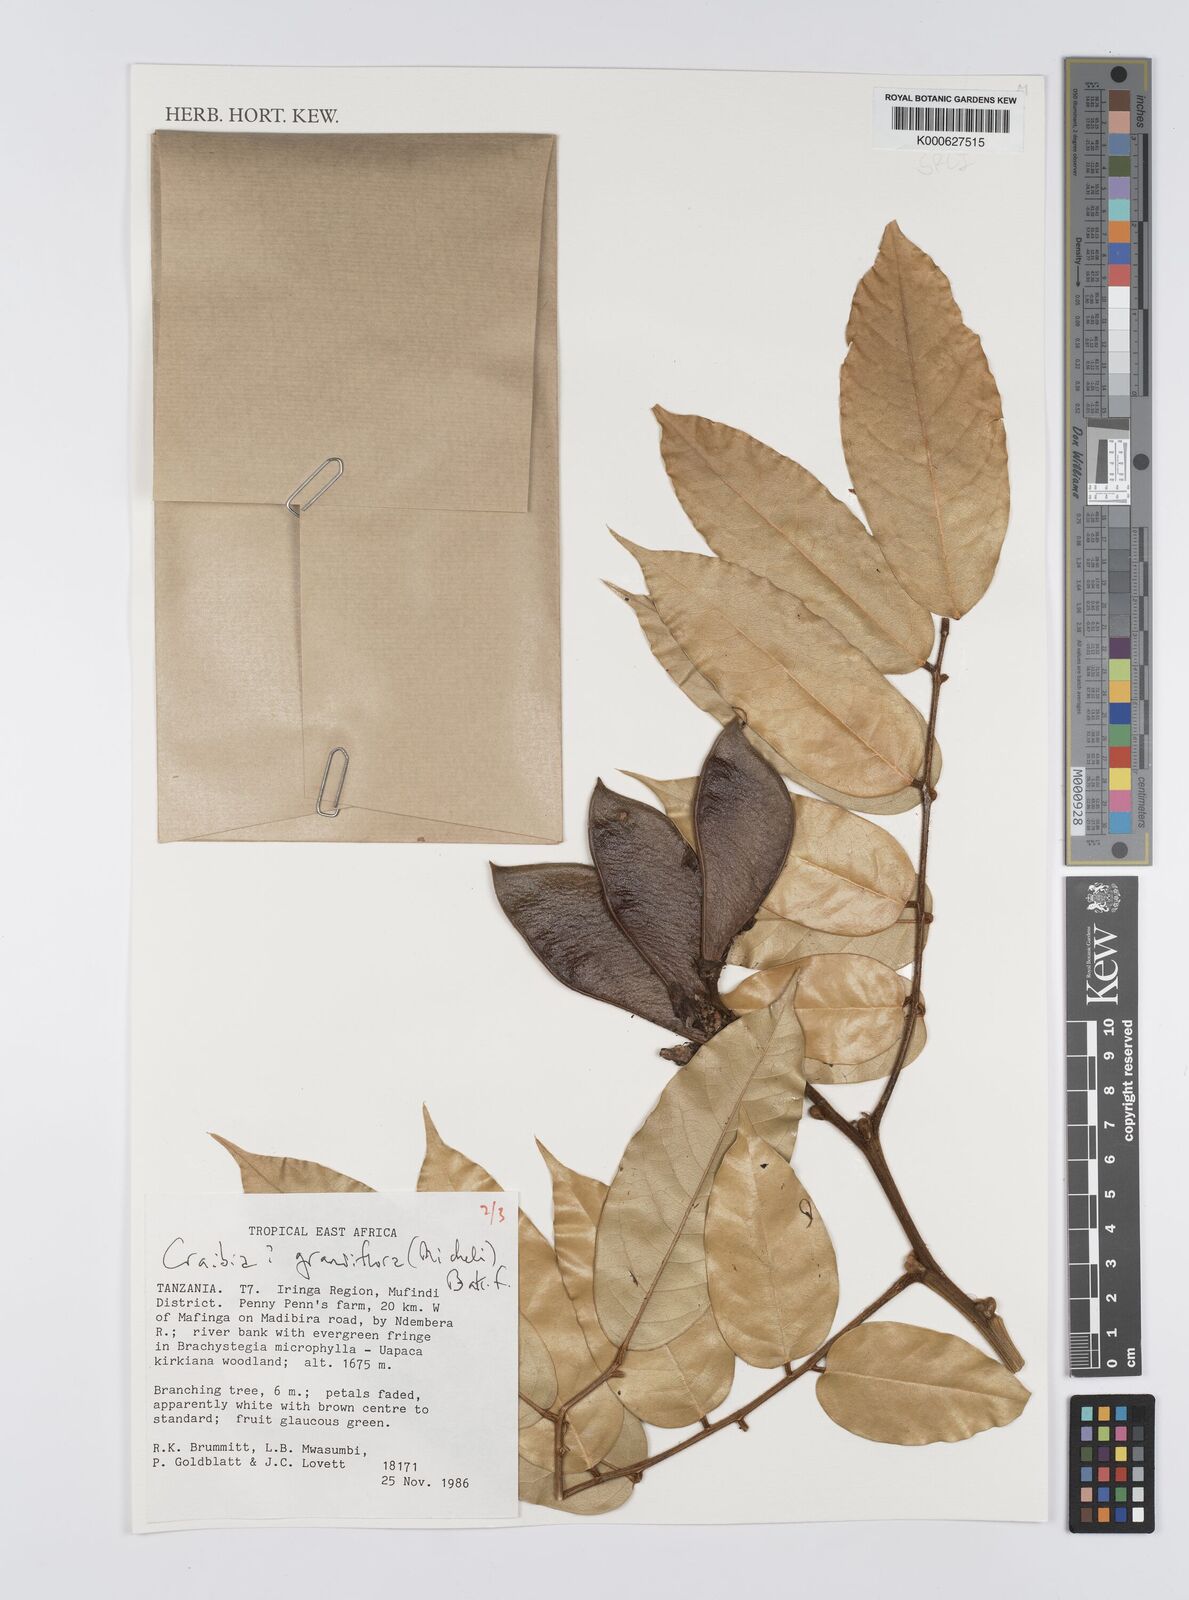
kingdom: Plantae
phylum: Tracheophyta
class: Magnoliopsida
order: Fabales
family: Fabaceae
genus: Craibia
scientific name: Craibia grandiflora
